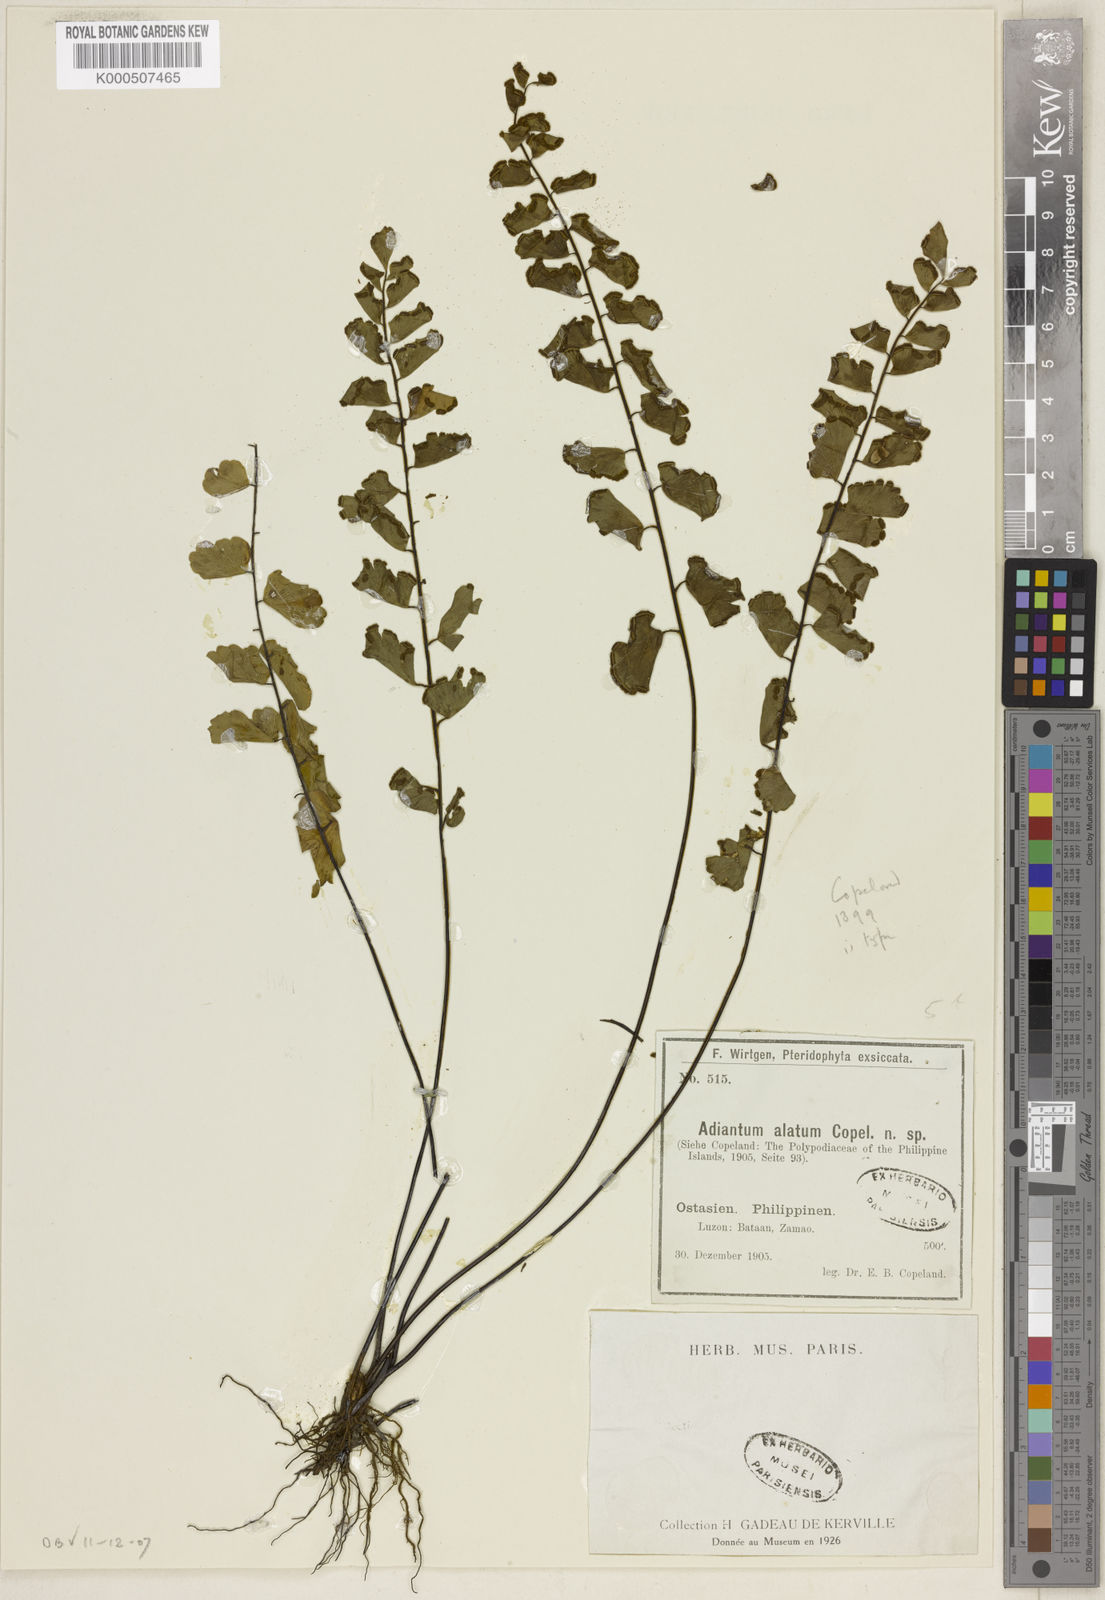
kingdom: Plantae
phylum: Tracheophyta
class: Polypodiopsida
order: Polypodiales
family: Pteridaceae
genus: Adiantum
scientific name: Adiantum soboliferum
